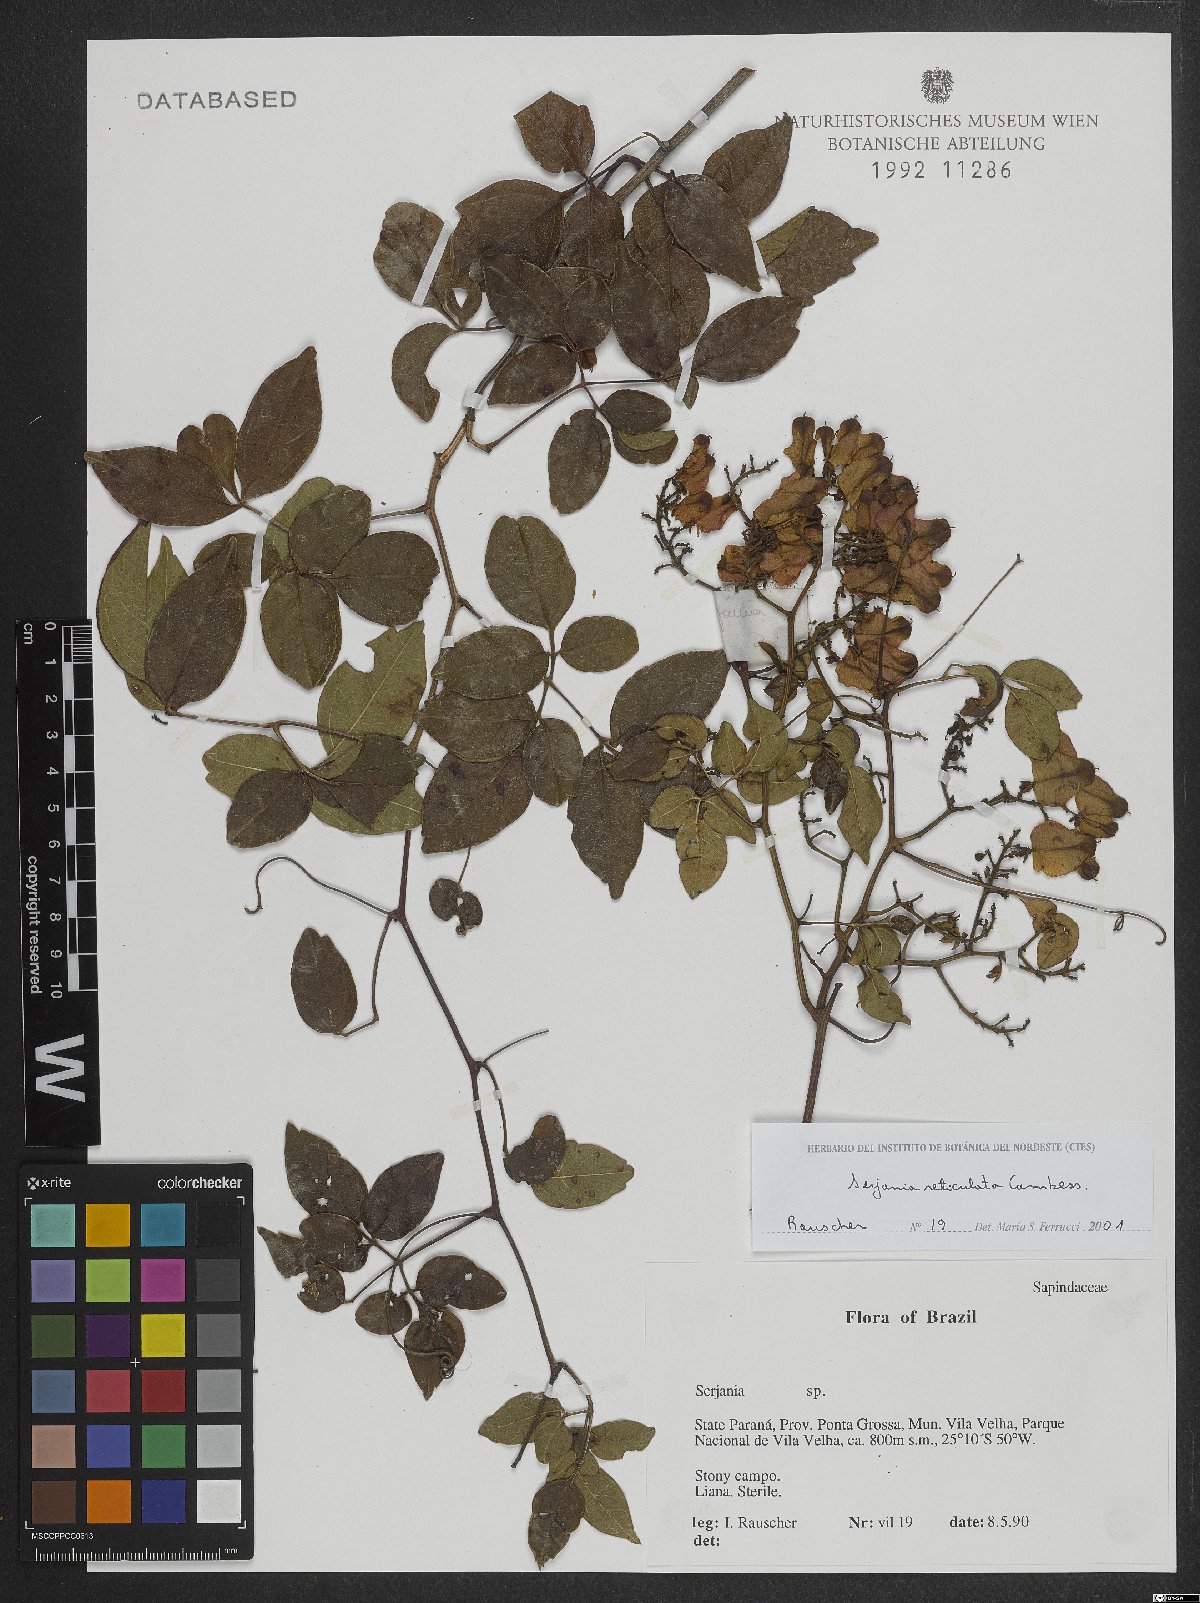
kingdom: Plantae
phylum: Tracheophyta
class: Magnoliopsida
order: Sapindales
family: Sapindaceae
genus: Serjania
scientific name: Serjania reticulata
